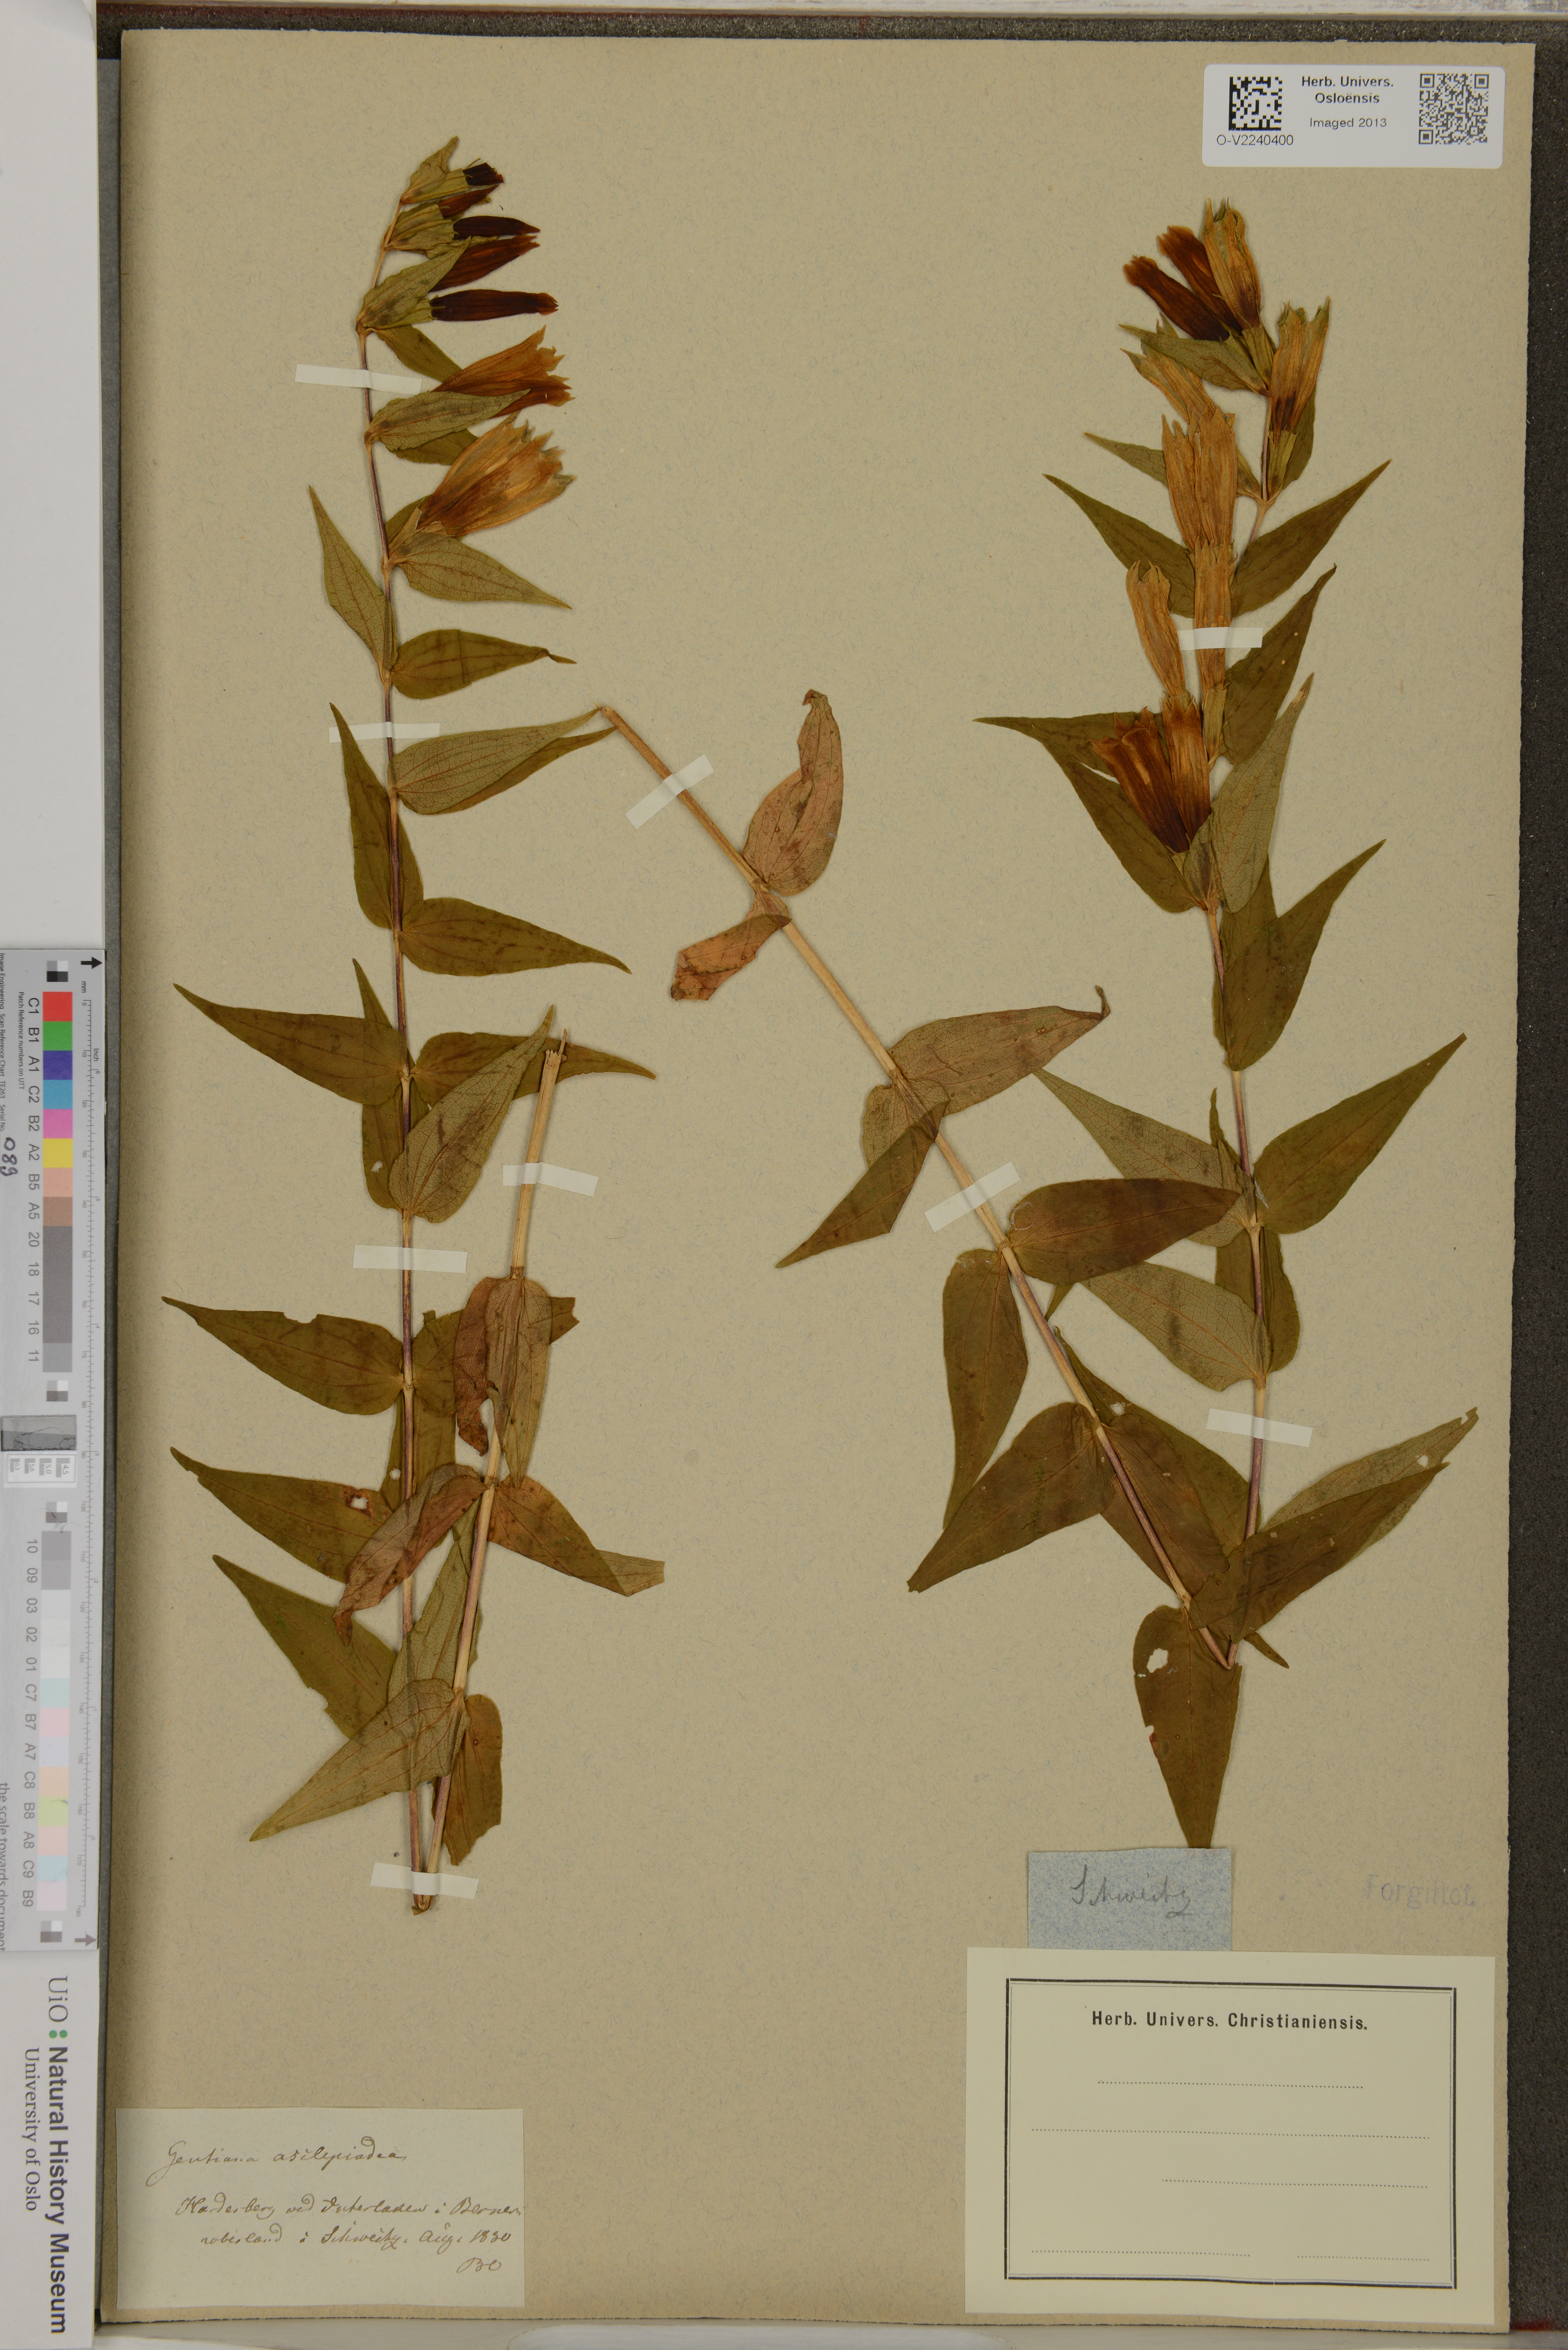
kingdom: Plantae
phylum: Tracheophyta
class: Magnoliopsida
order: Gentianales
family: Gentianaceae
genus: Gentiana
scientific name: Gentiana asclepiadea
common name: Willow gentian
